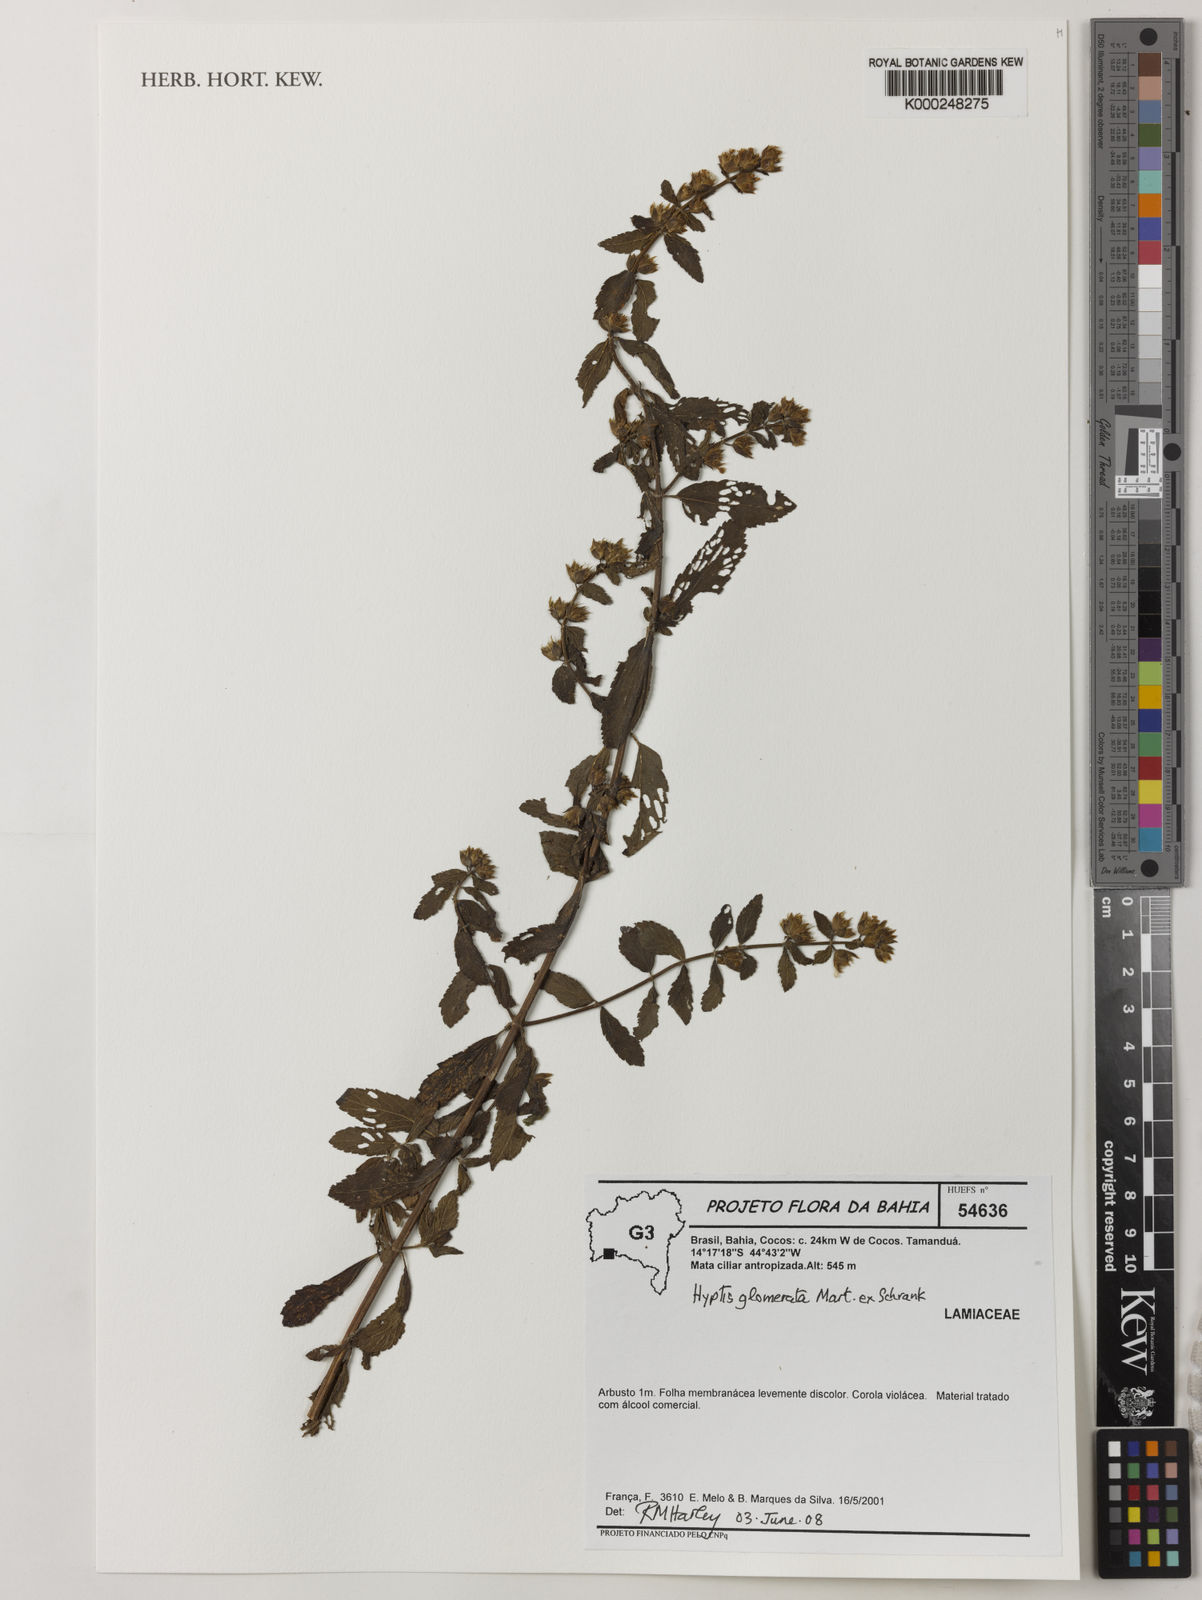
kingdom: Plantae
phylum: Tracheophyta
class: Magnoliopsida
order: Lamiales
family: Lamiaceae
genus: Oocephalus
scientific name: Oocephalus oppositiflorus
